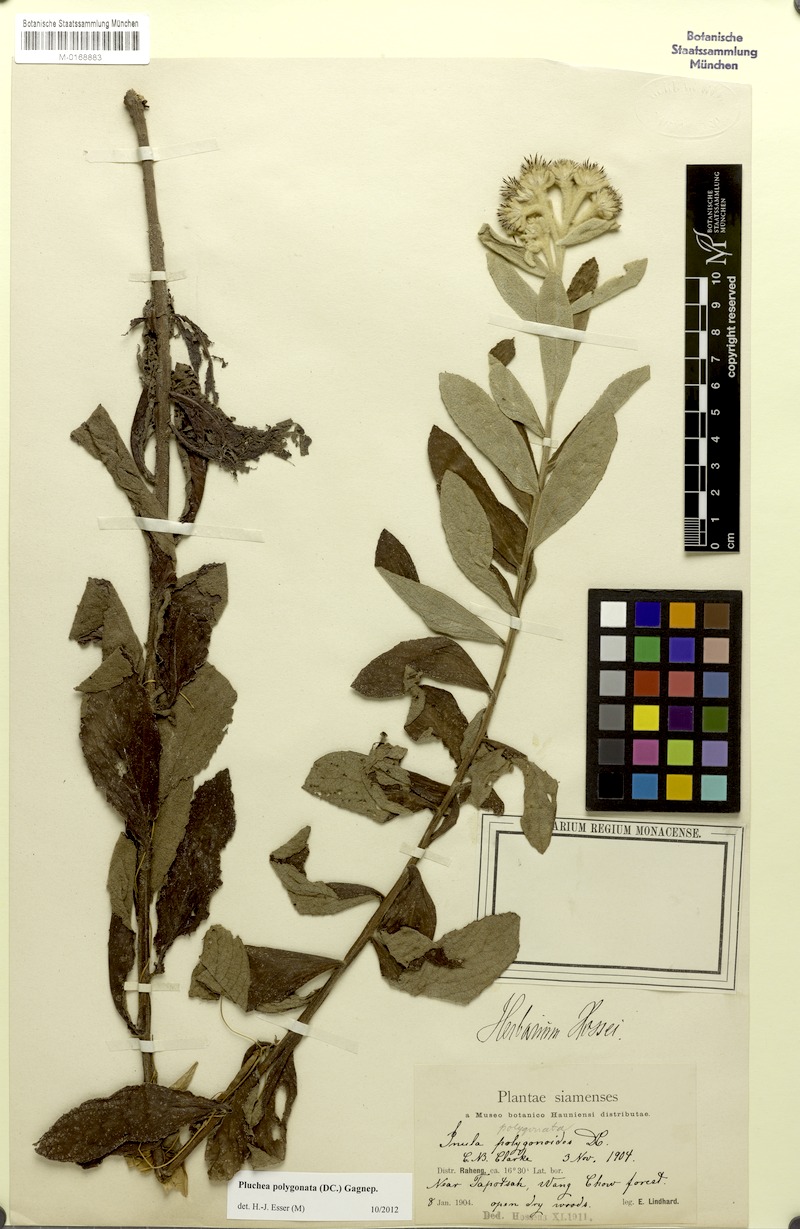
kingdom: Plantae
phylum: Tracheophyta
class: Magnoliopsida
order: Asterales
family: Asteraceae
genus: Pluchea
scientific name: Pluchea polygonata
